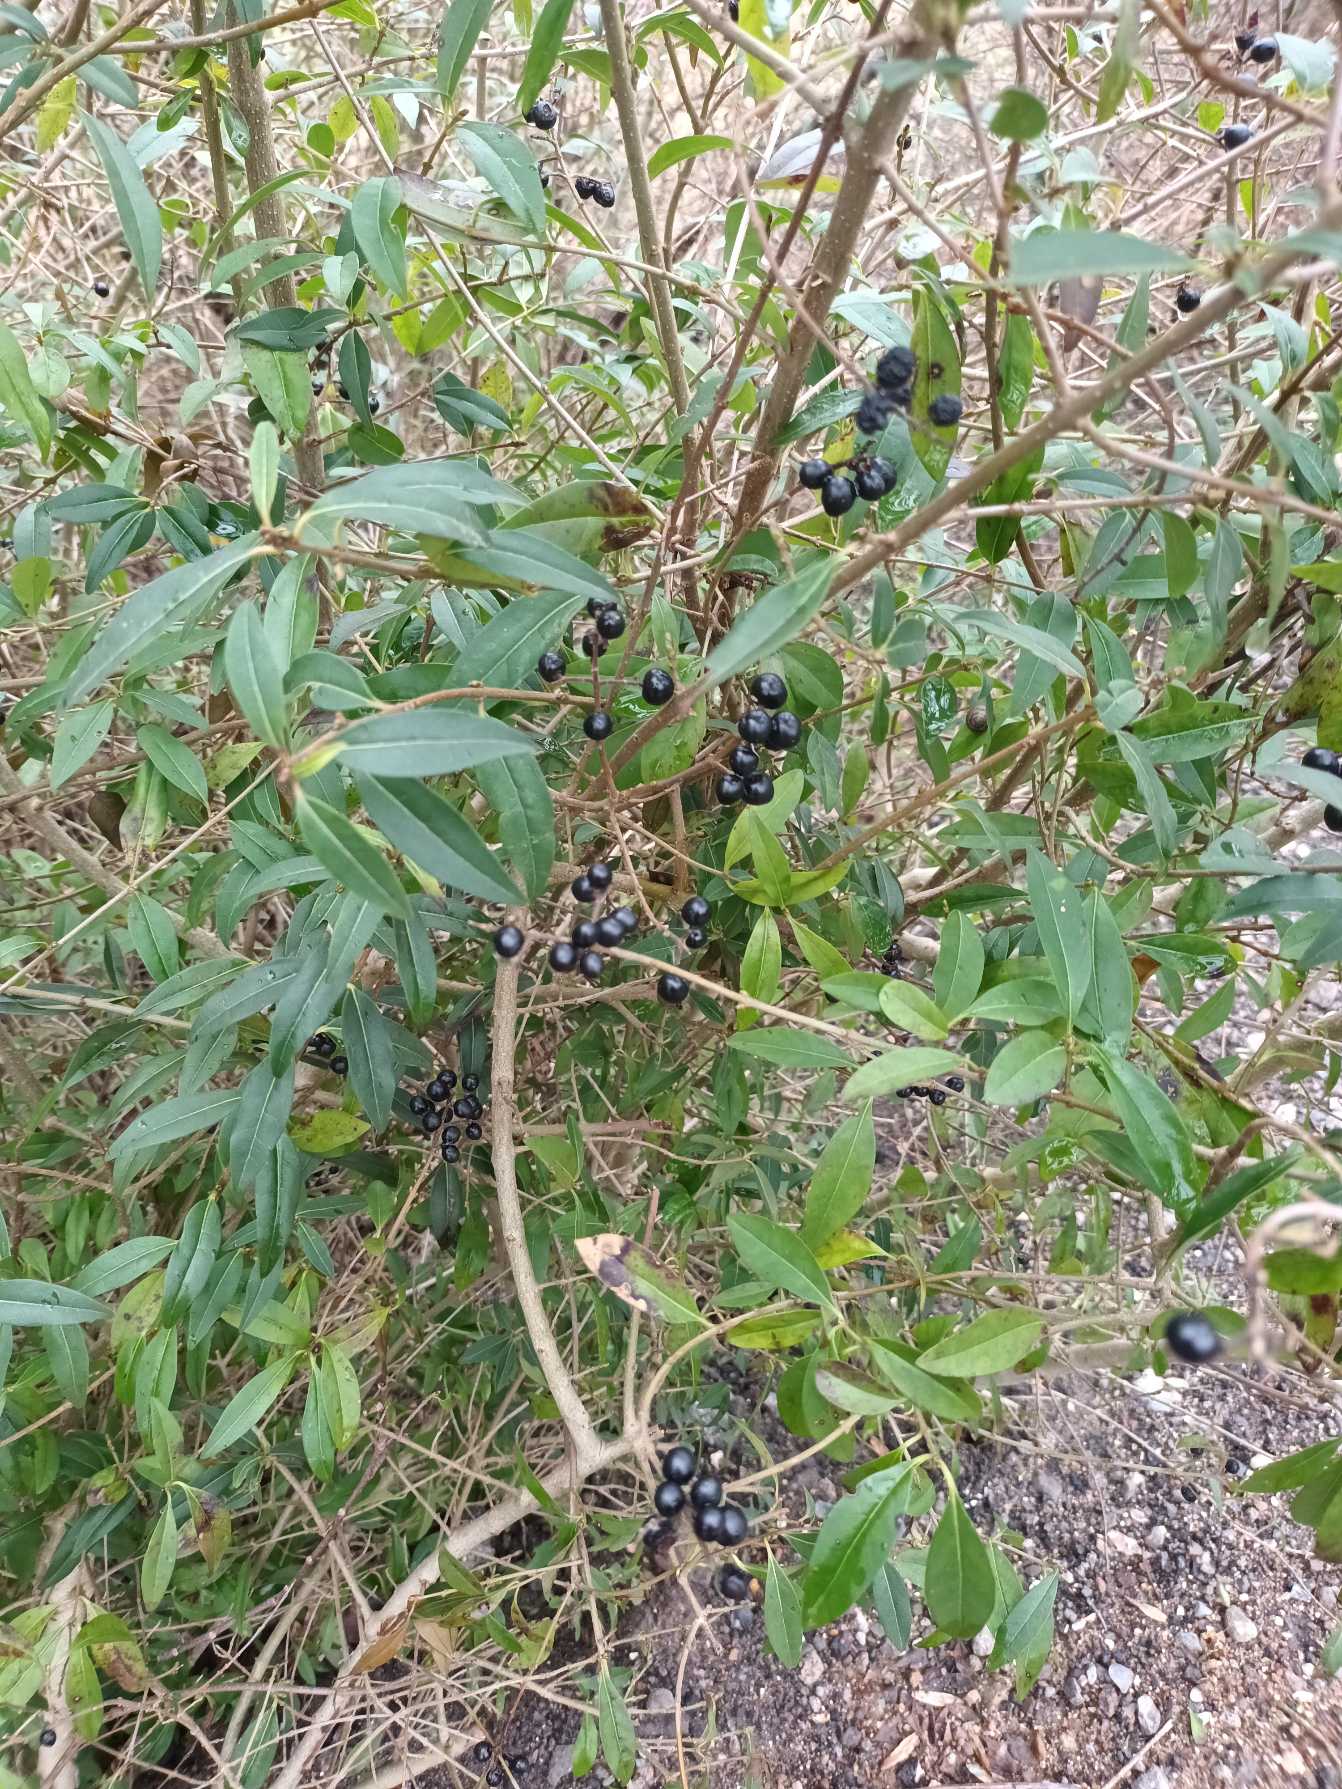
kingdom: Plantae
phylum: Tracheophyta
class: Magnoliopsida
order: Lamiales
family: Oleaceae
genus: Ligustrum
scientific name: Ligustrum vulgare
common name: Liguster
